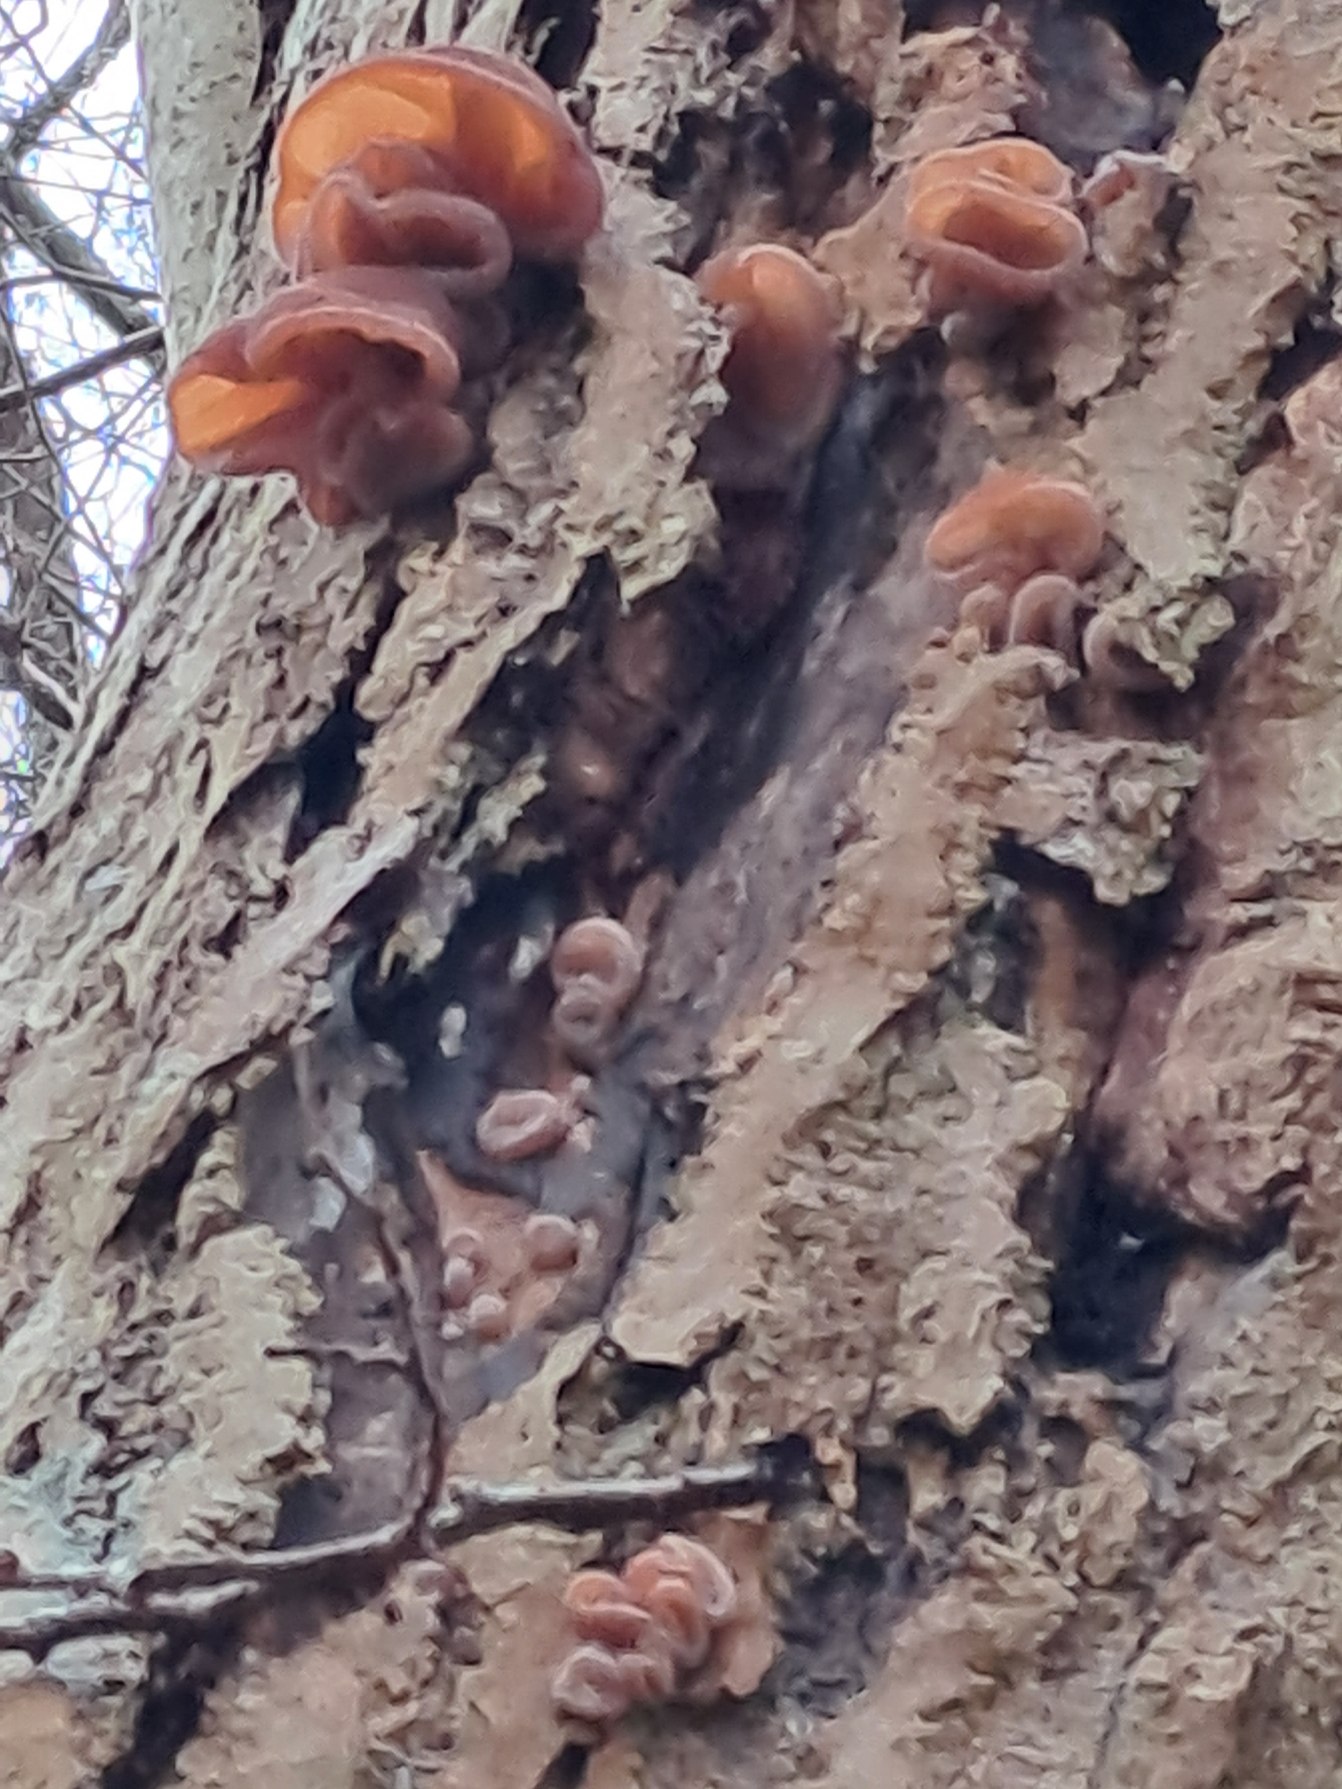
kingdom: Fungi
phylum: Basidiomycota
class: Agaricomycetes
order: Auriculariales
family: Auriculariaceae
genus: Auricularia
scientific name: Auricularia auricula-judae
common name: Almindelig judasøre
